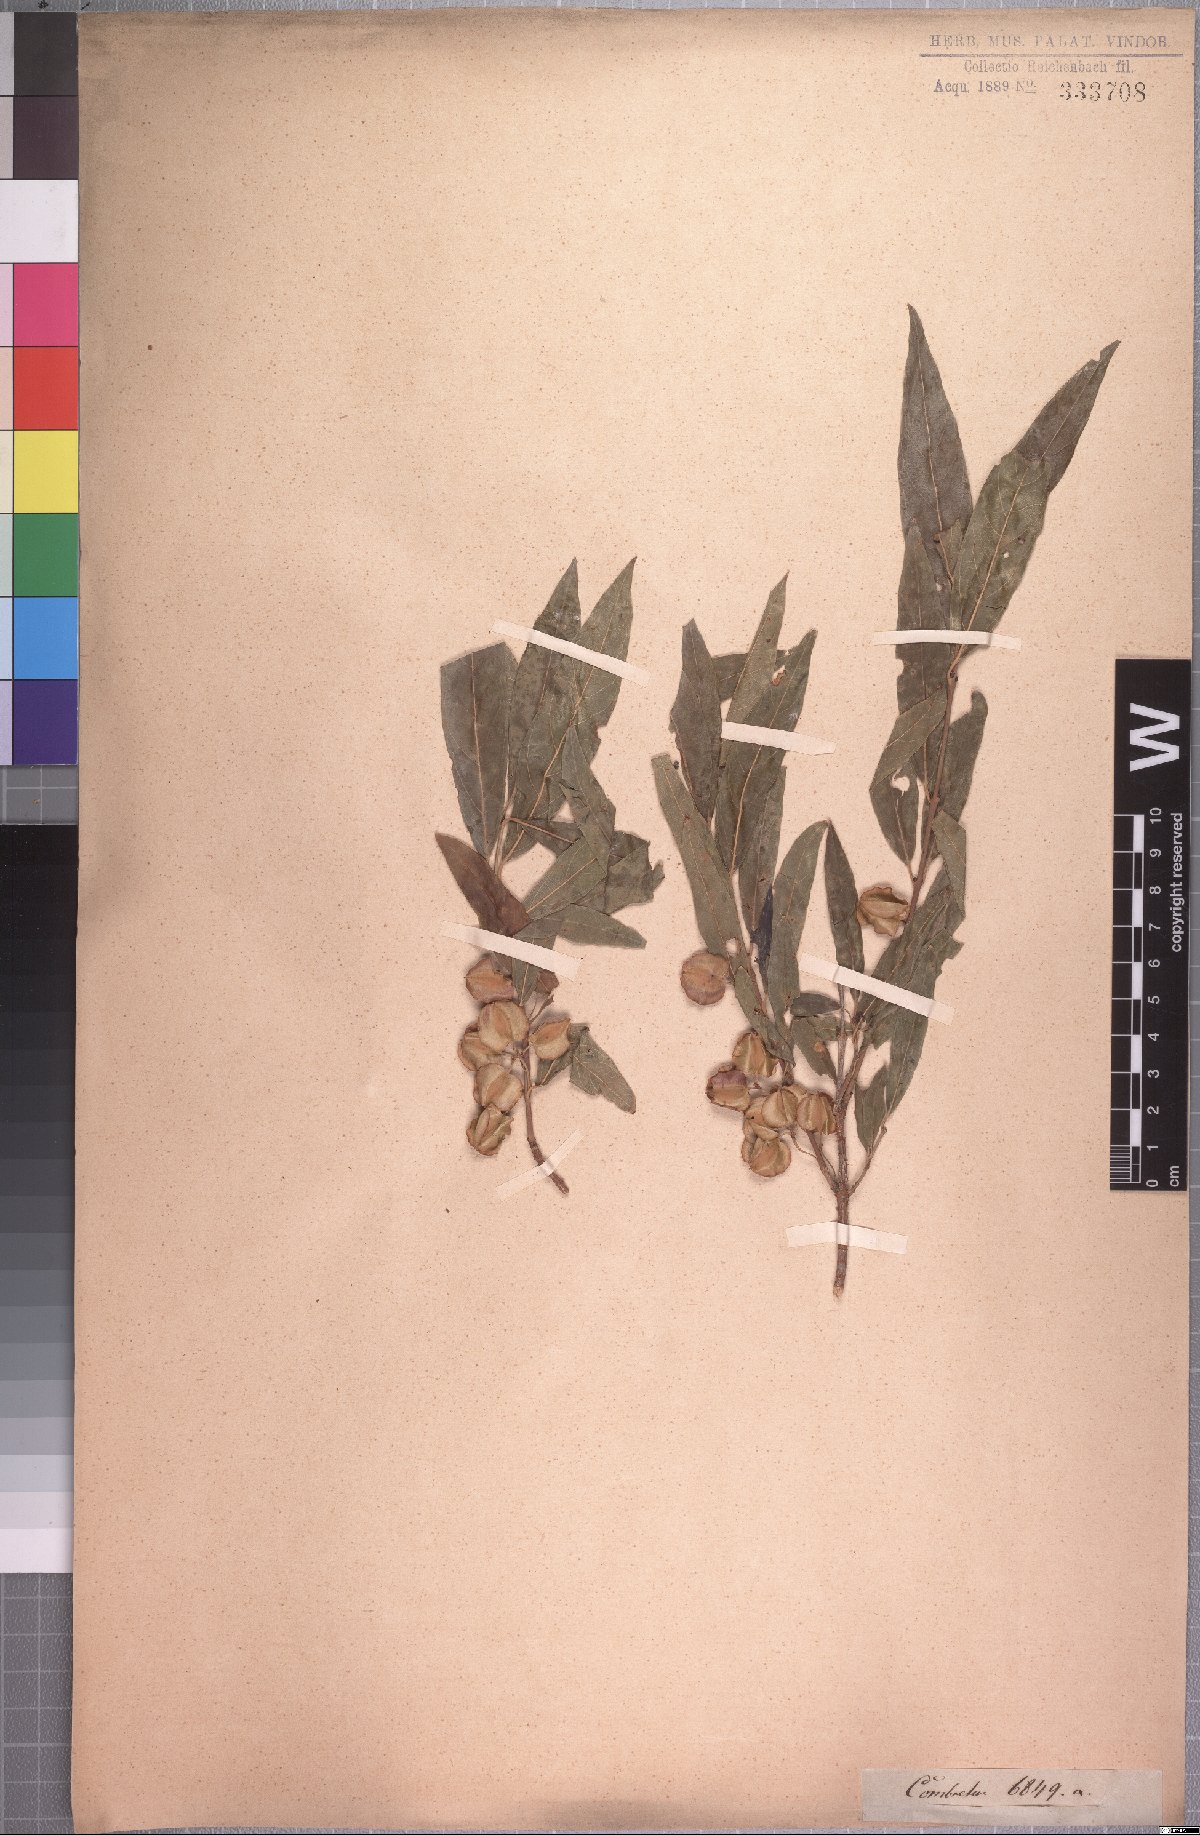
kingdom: Plantae
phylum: Tracheophyta
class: Magnoliopsida
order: Myrtales
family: Combretaceae
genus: Combretum
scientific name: Combretum caffrum
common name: Cape bushwillow
